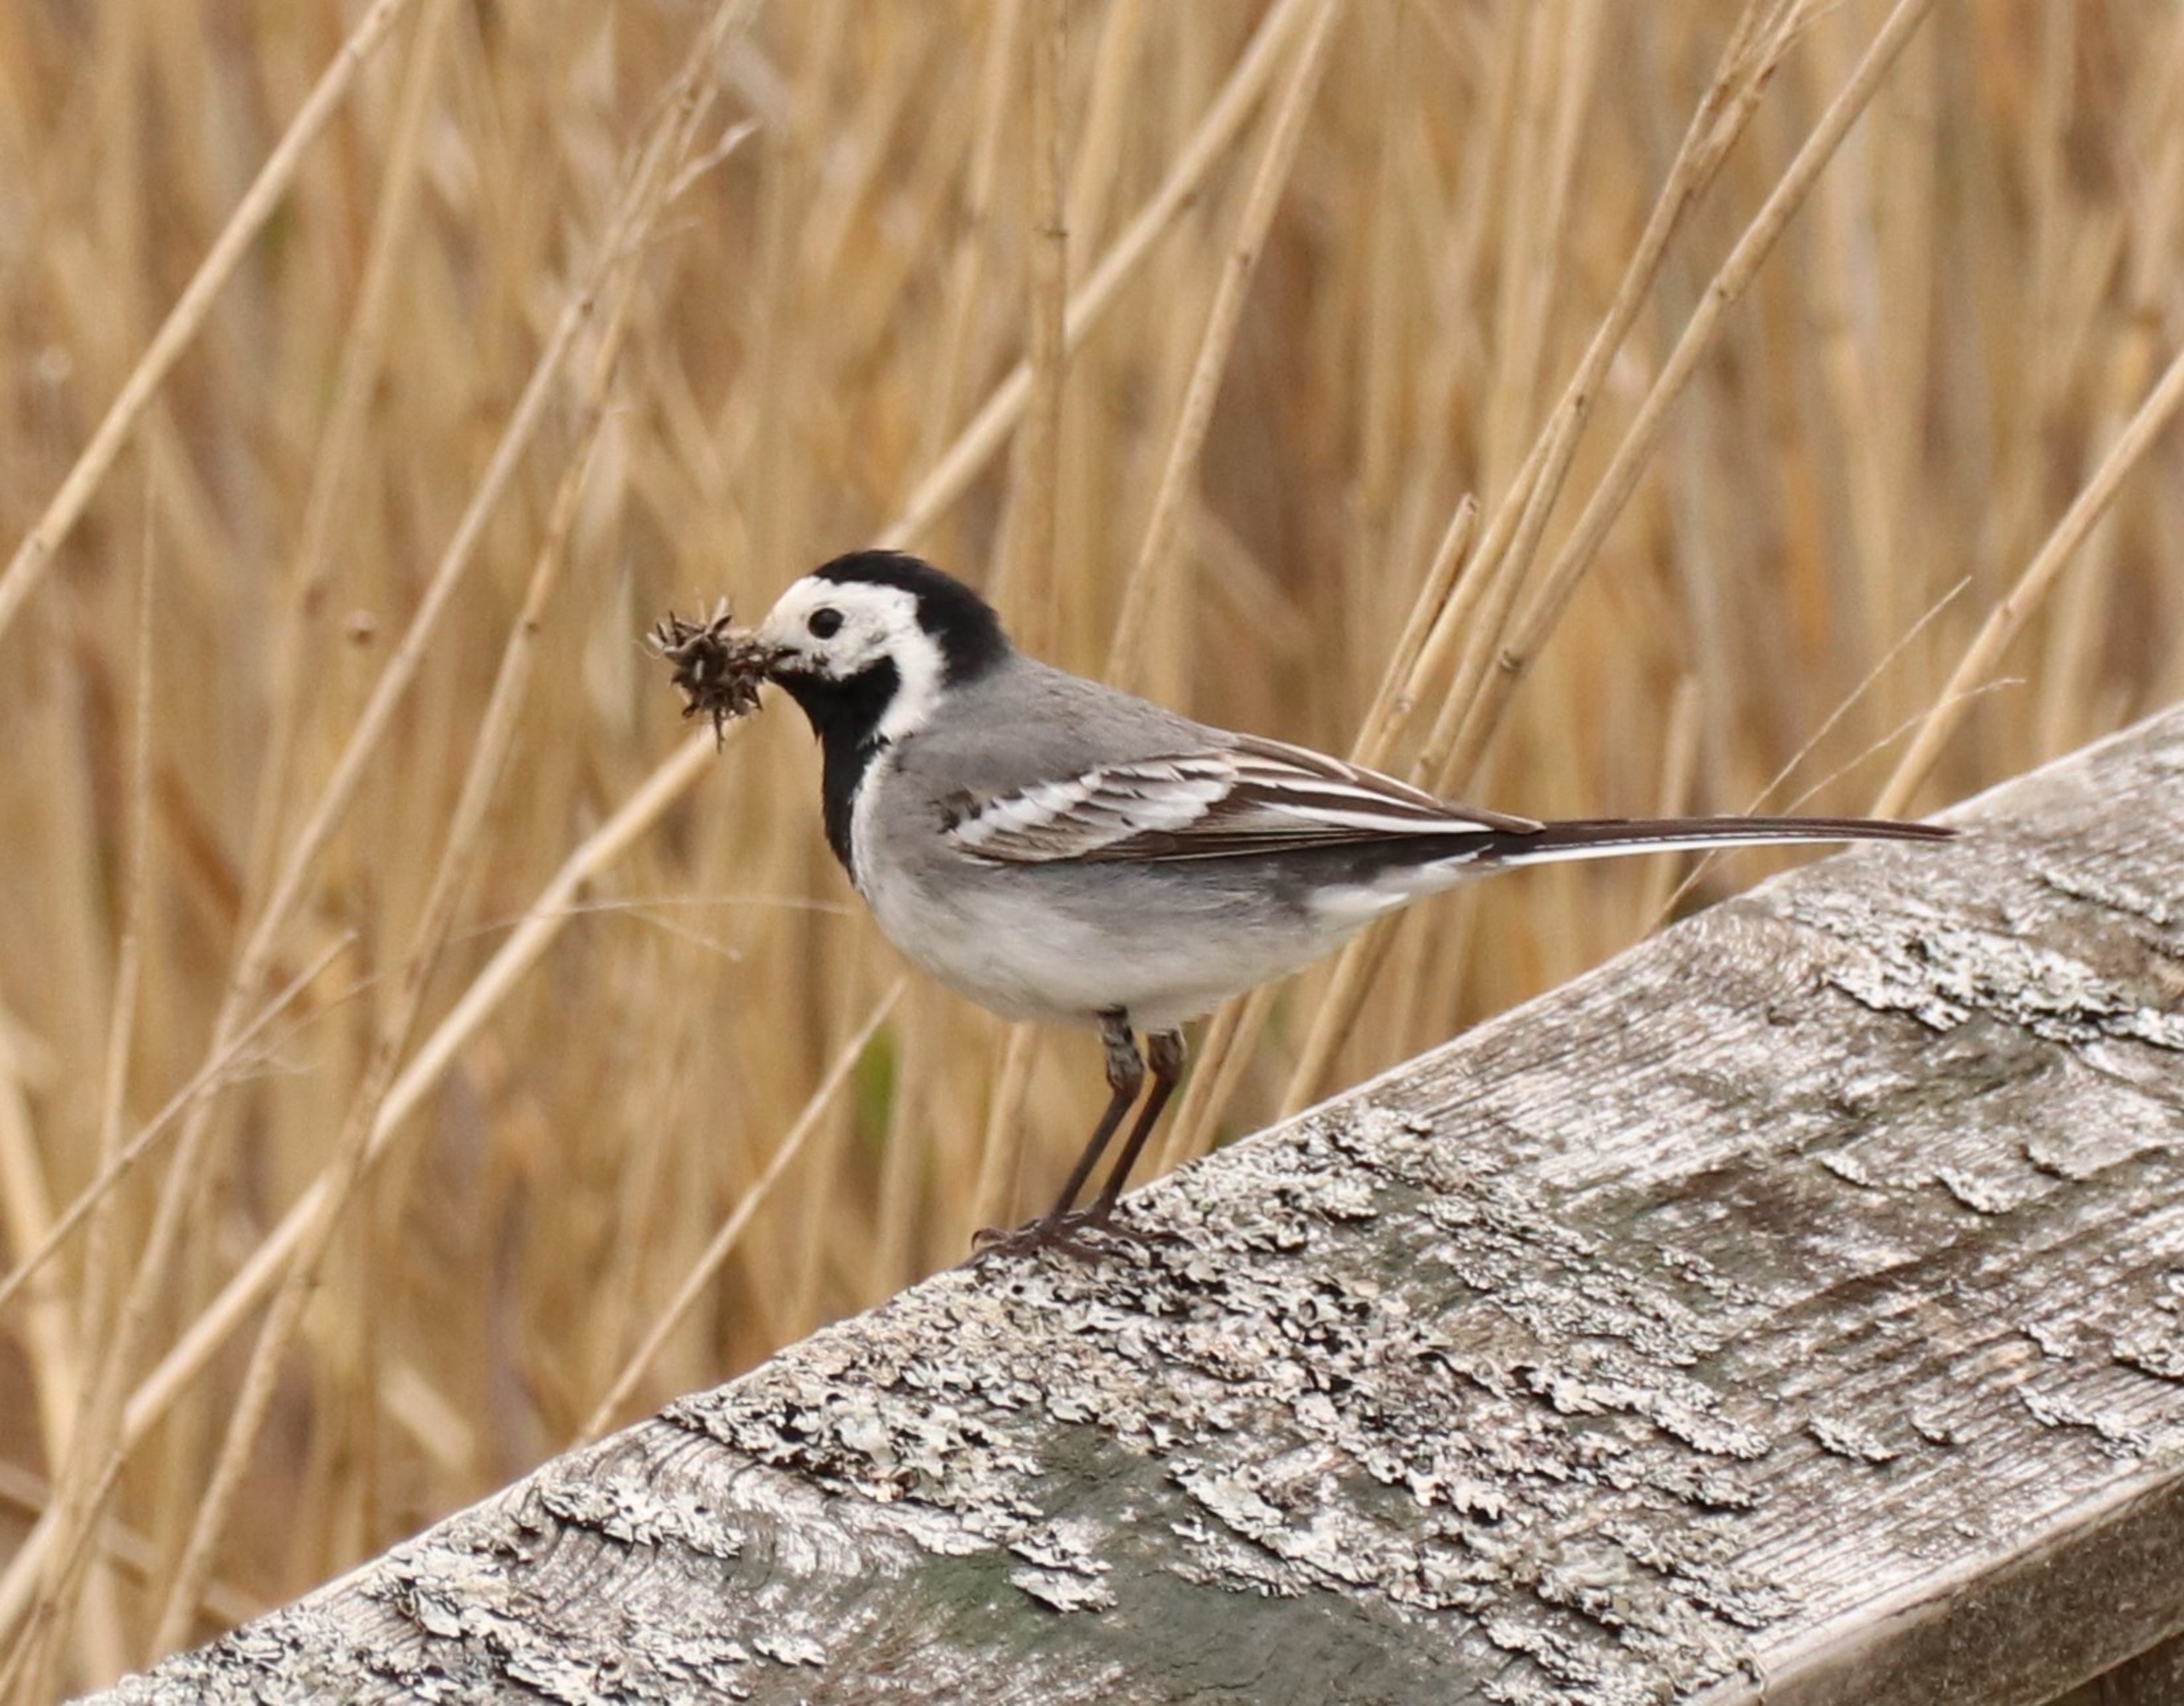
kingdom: Animalia
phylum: Chordata
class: Aves
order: Passeriformes
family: Motacillidae
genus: Motacilla
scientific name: Motacilla alba
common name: Hvid vipstjert
